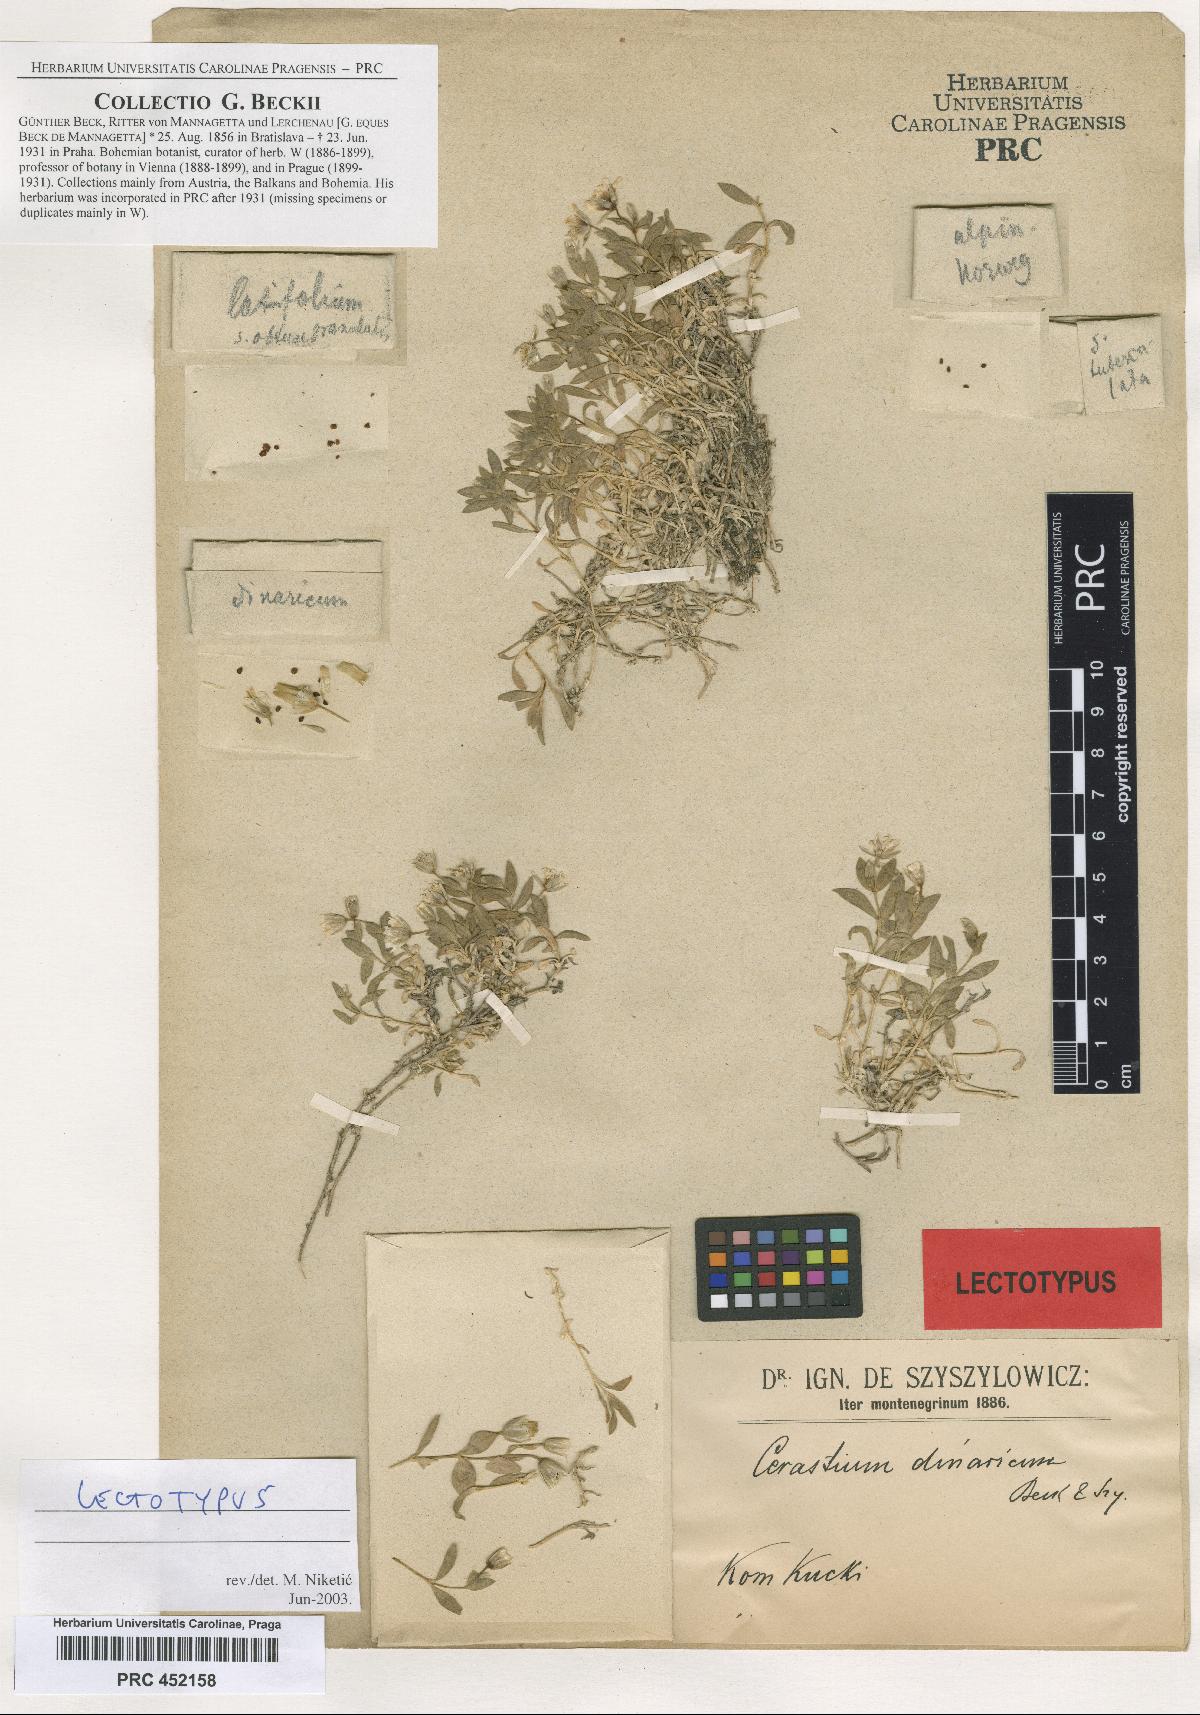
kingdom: Plantae
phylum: Tracheophyta
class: Magnoliopsida
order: Caryophyllales
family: Caryophyllaceae
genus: Cerastium
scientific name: Cerastium dinaricum
